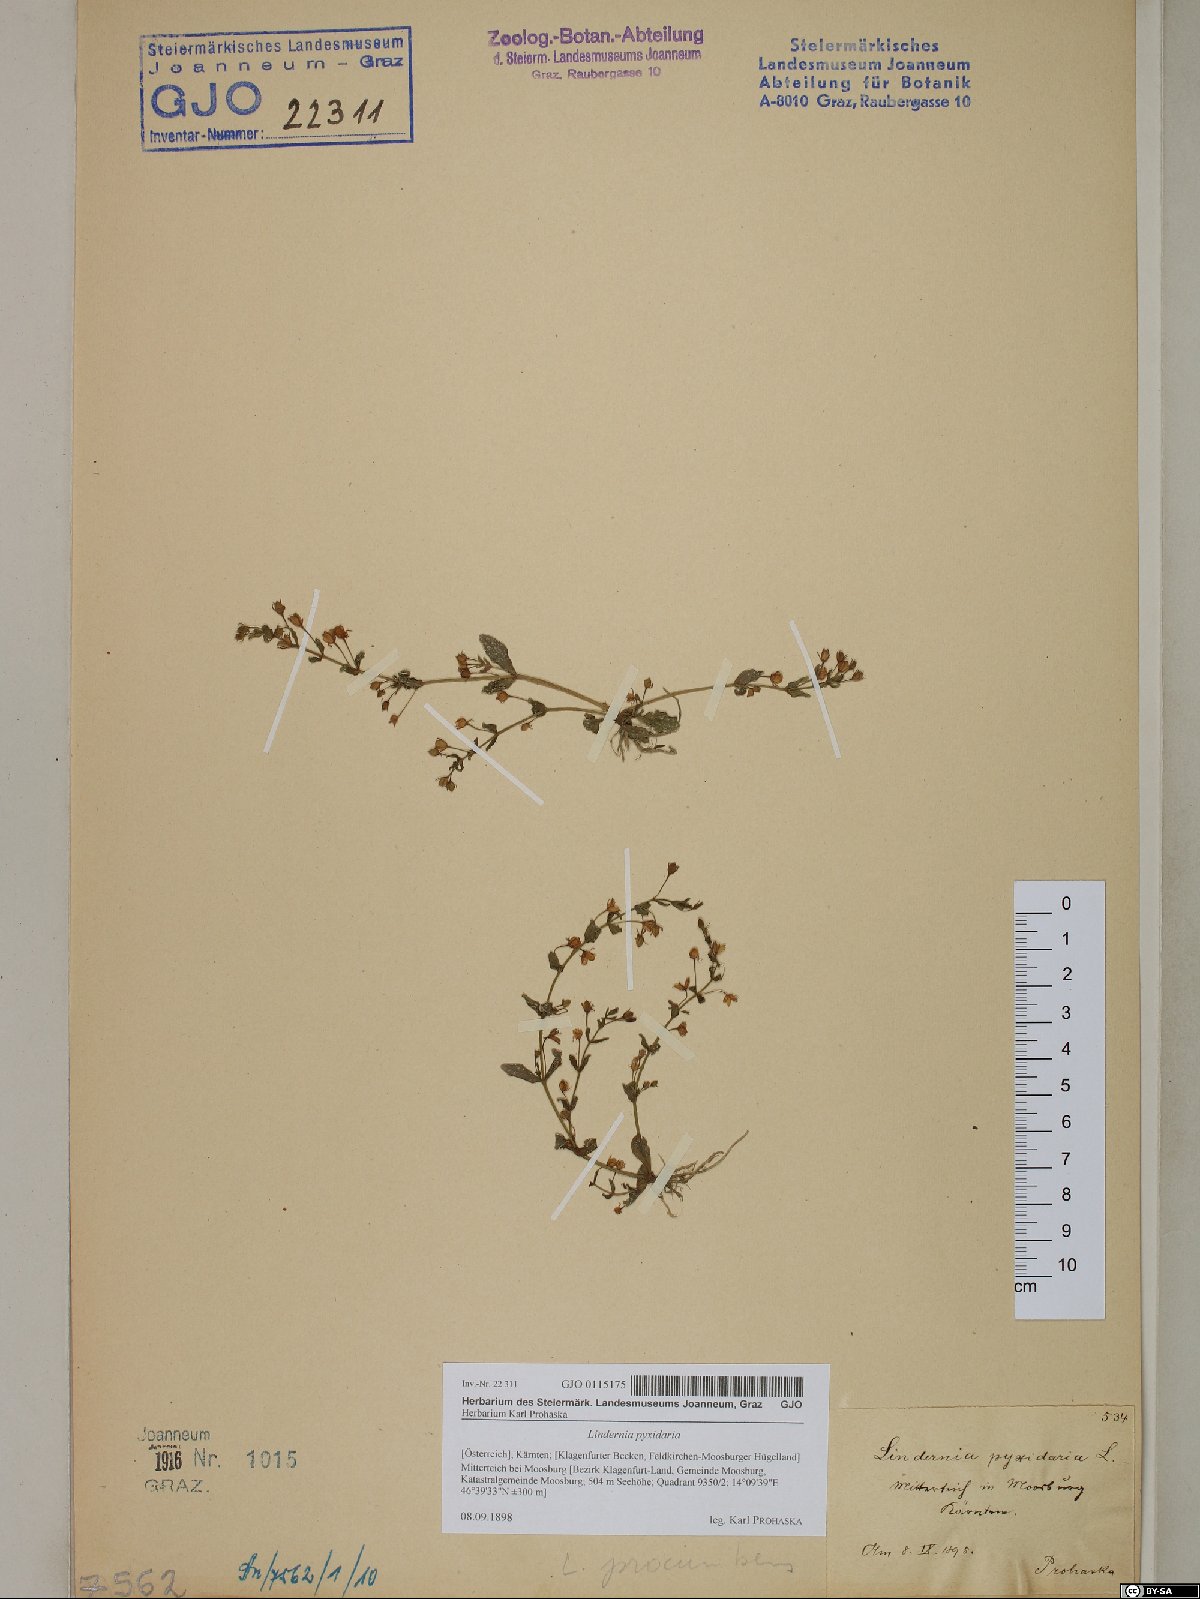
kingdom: Plantae
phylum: Tracheophyta
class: Magnoliopsida
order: Lamiales
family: Linderniaceae
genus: Lindernia
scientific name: Lindernia dubia
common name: Annual false pimpernel
